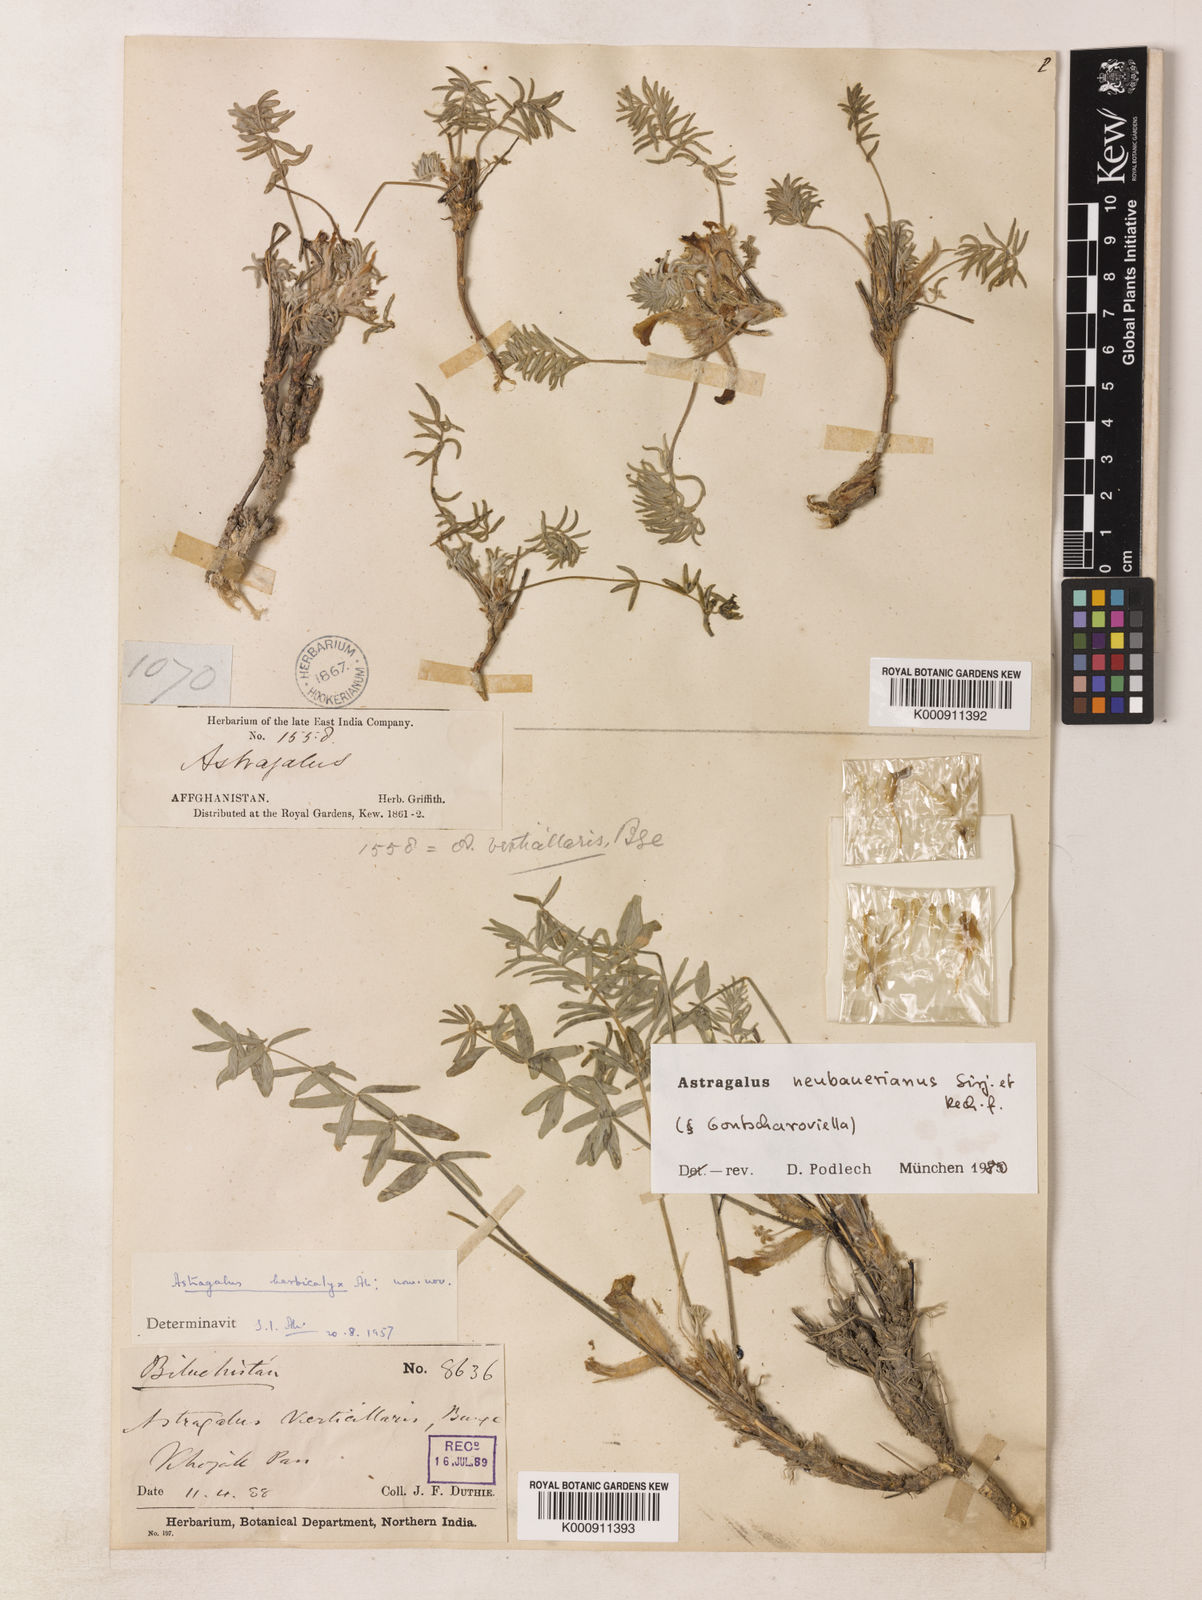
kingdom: Plantae
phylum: Tracheophyta
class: Magnoliopsida
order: Fabales
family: Fabaceae
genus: Astragalus
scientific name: Astragalus neubauerianus
